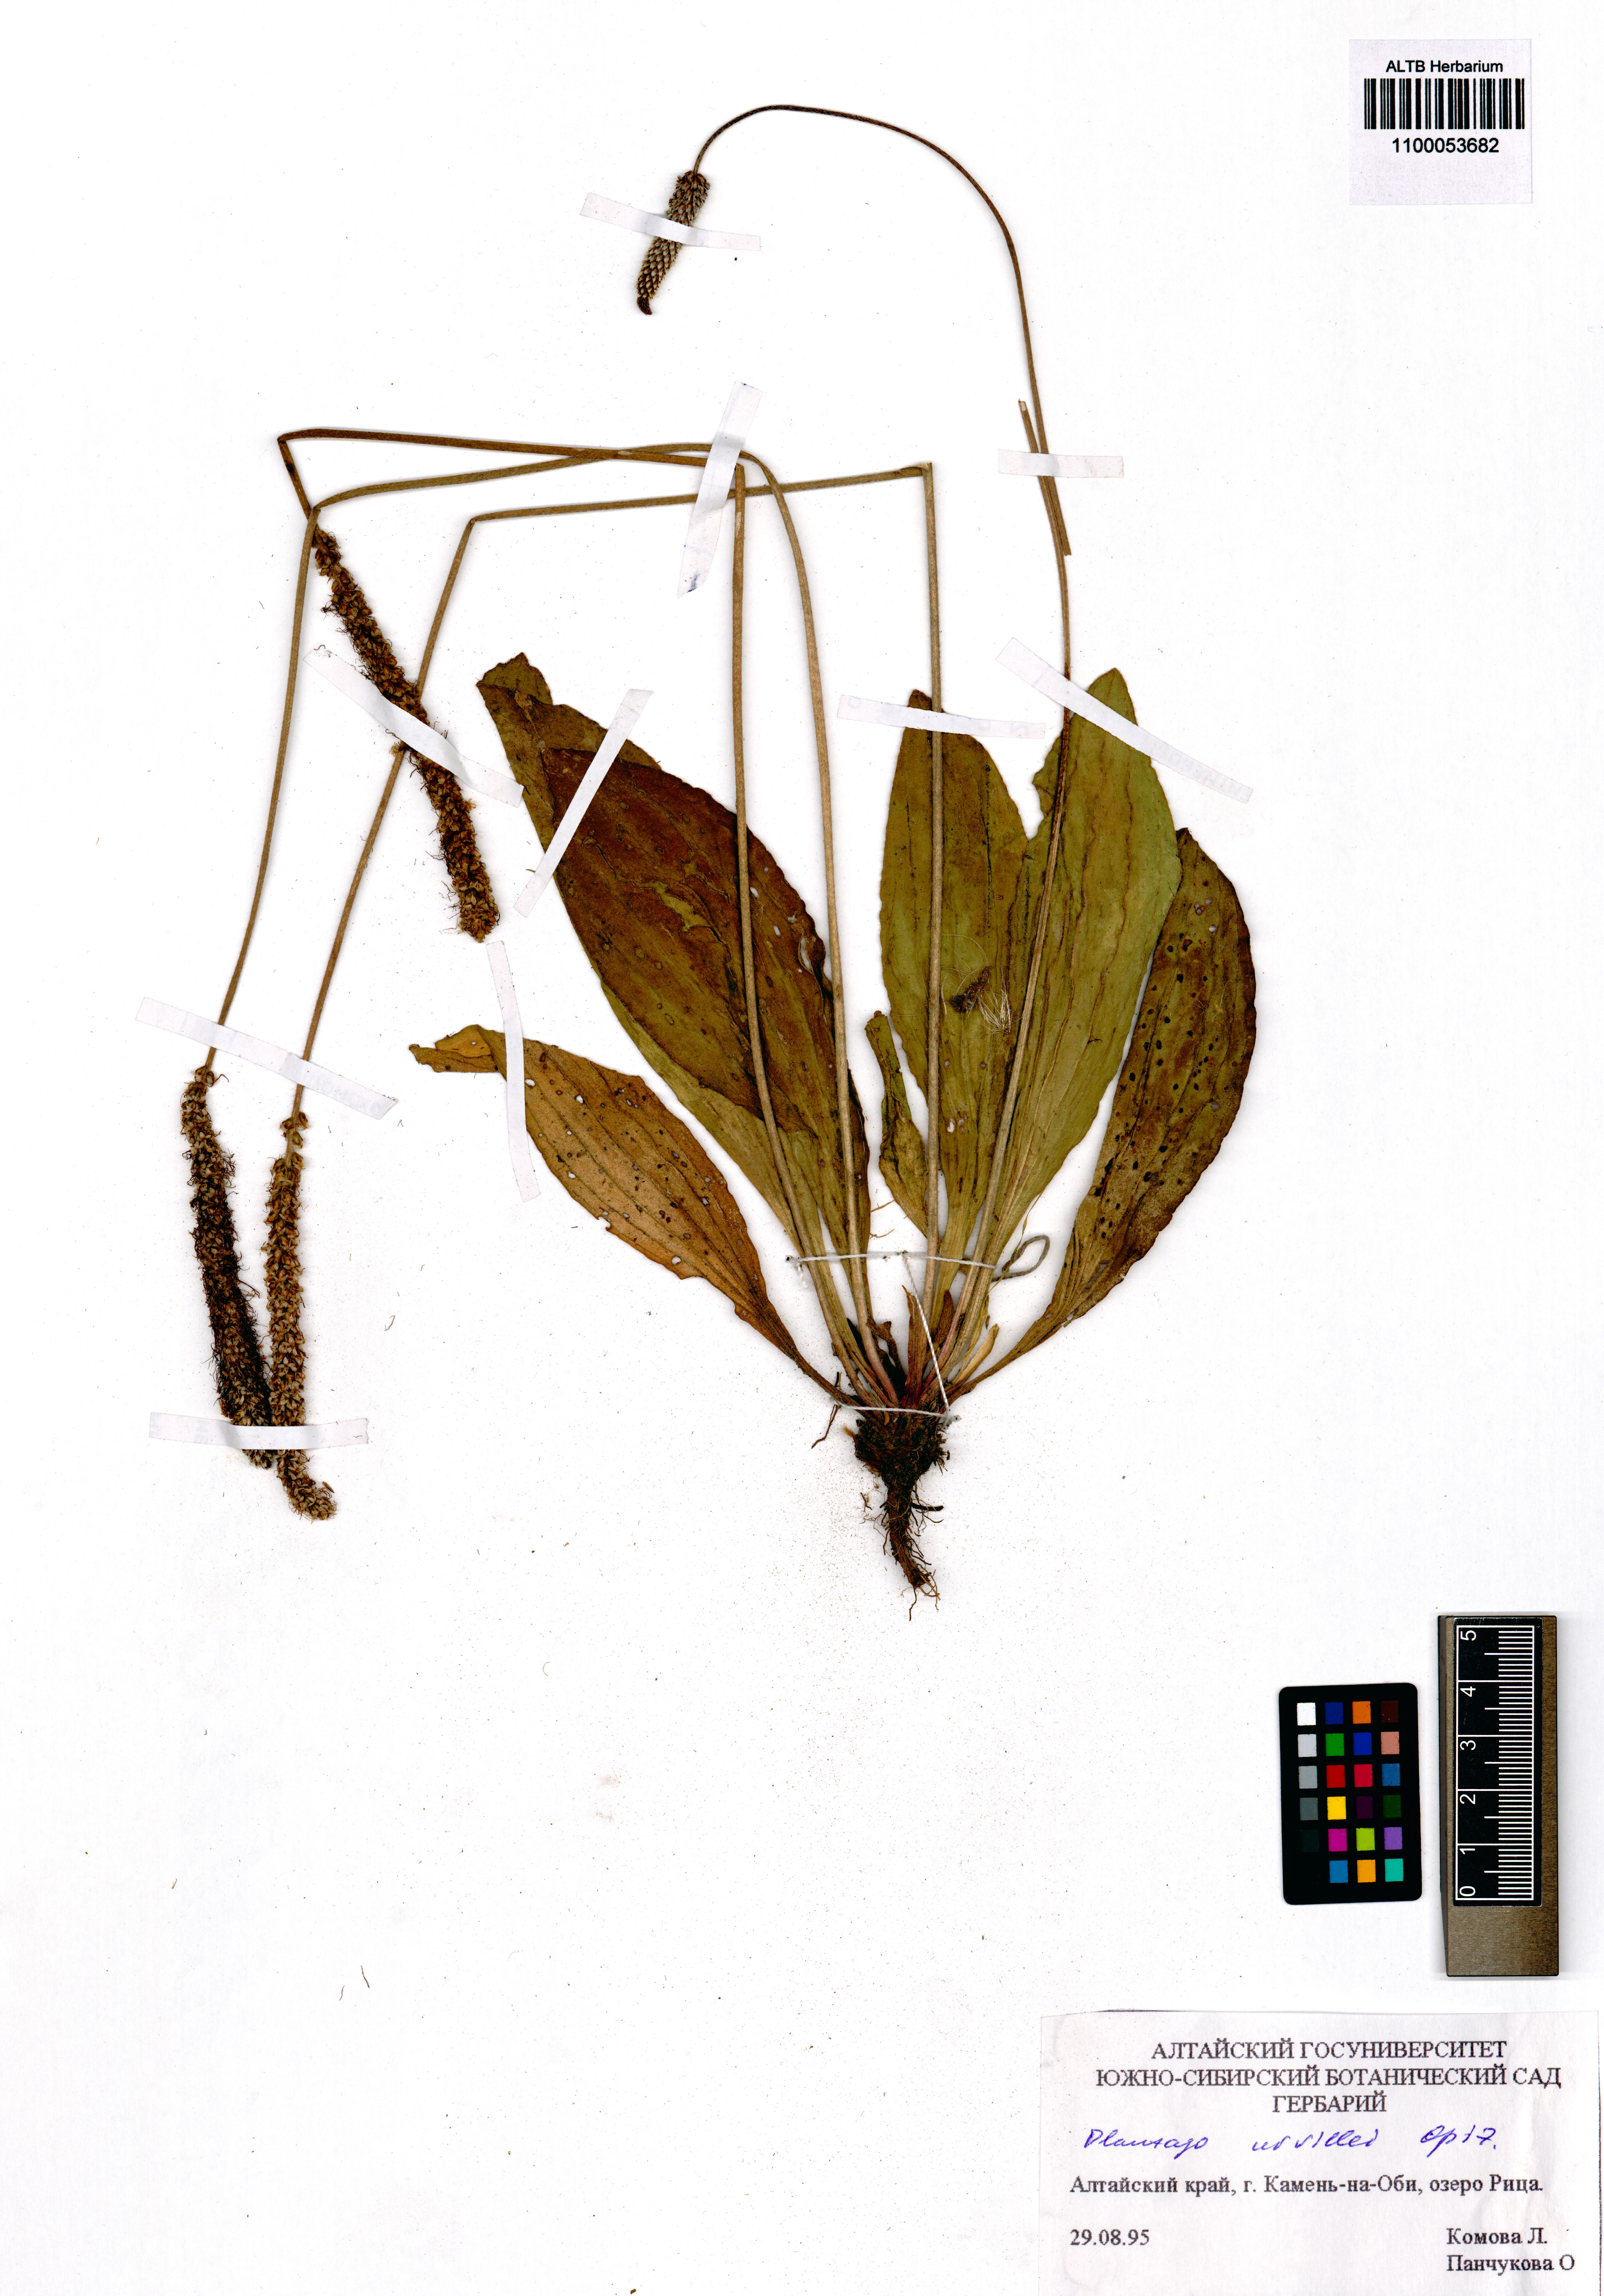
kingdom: Plantae
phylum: Tracheophyta
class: Magnoliopsida
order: Lamiales
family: Plantaginaceae
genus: Plantago
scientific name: Plantago urvillei
